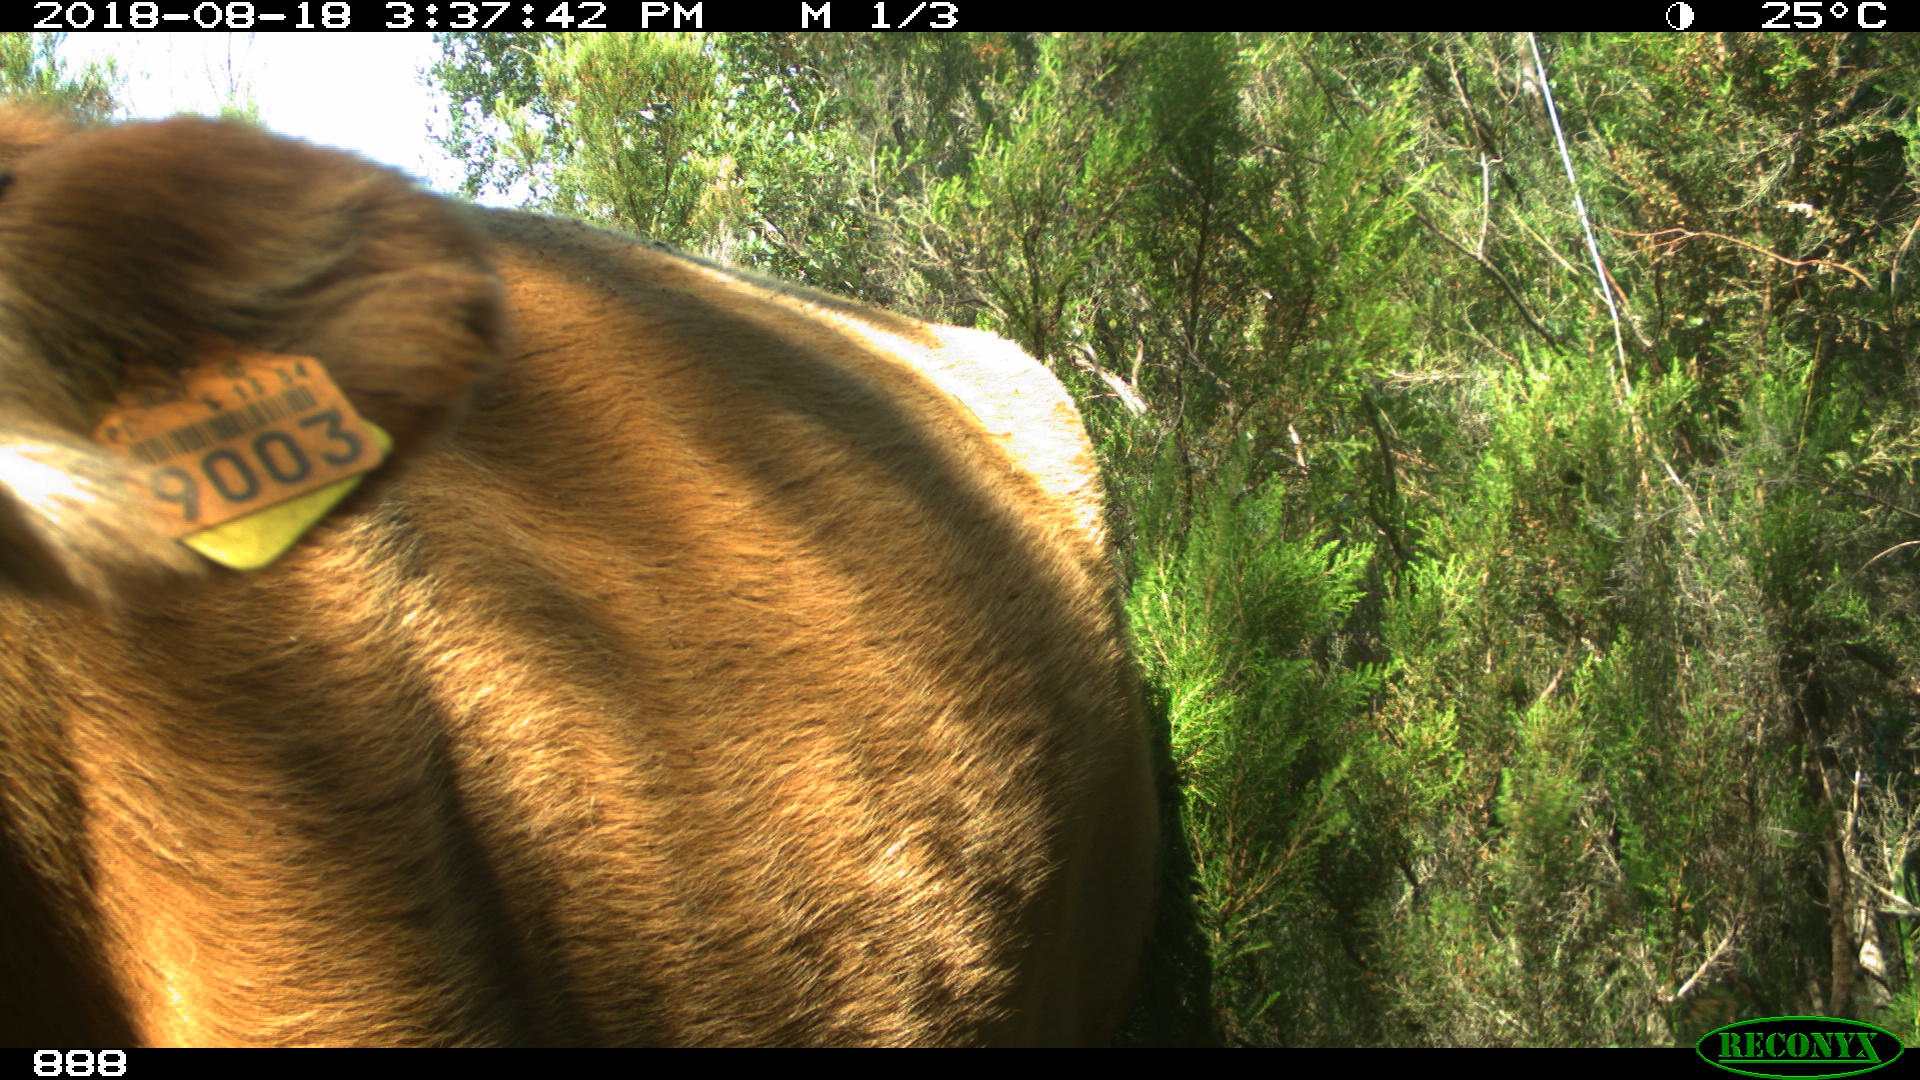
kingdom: Animalia
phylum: Chordata
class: Mammalia
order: Artiodactyla
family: Bovidae
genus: Bos
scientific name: Bos taurus
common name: Domesticated cattle
